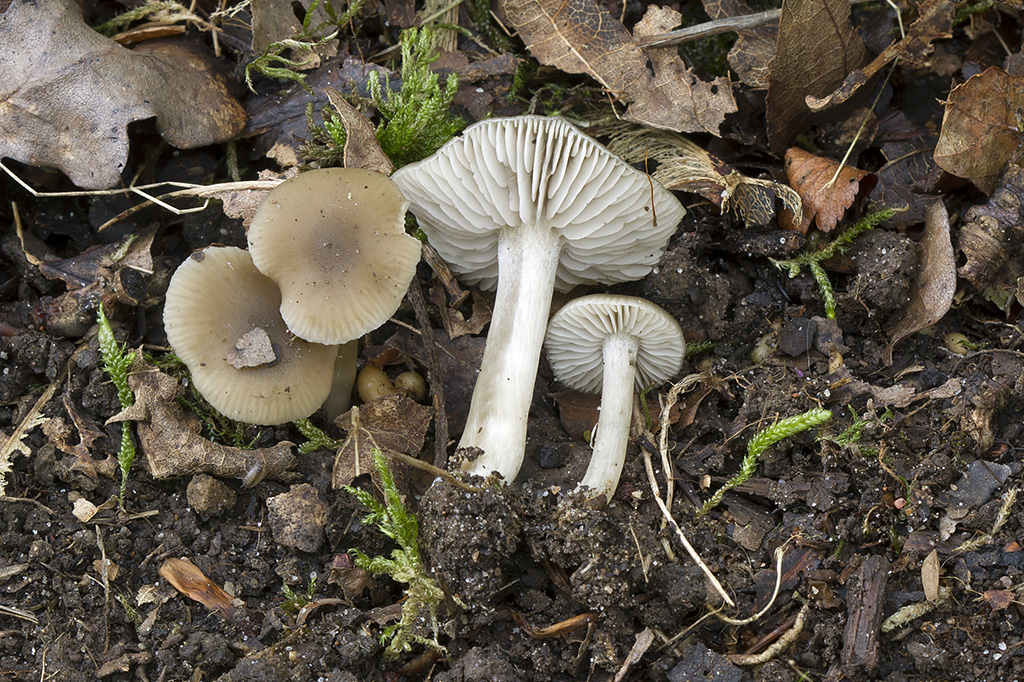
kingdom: Fungi
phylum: Basidiomycota
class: Agaricomycetes
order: Agaricales
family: Entolomataceae
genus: Entoloma
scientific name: Entoloma sordidulum
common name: smudsig rødblad
